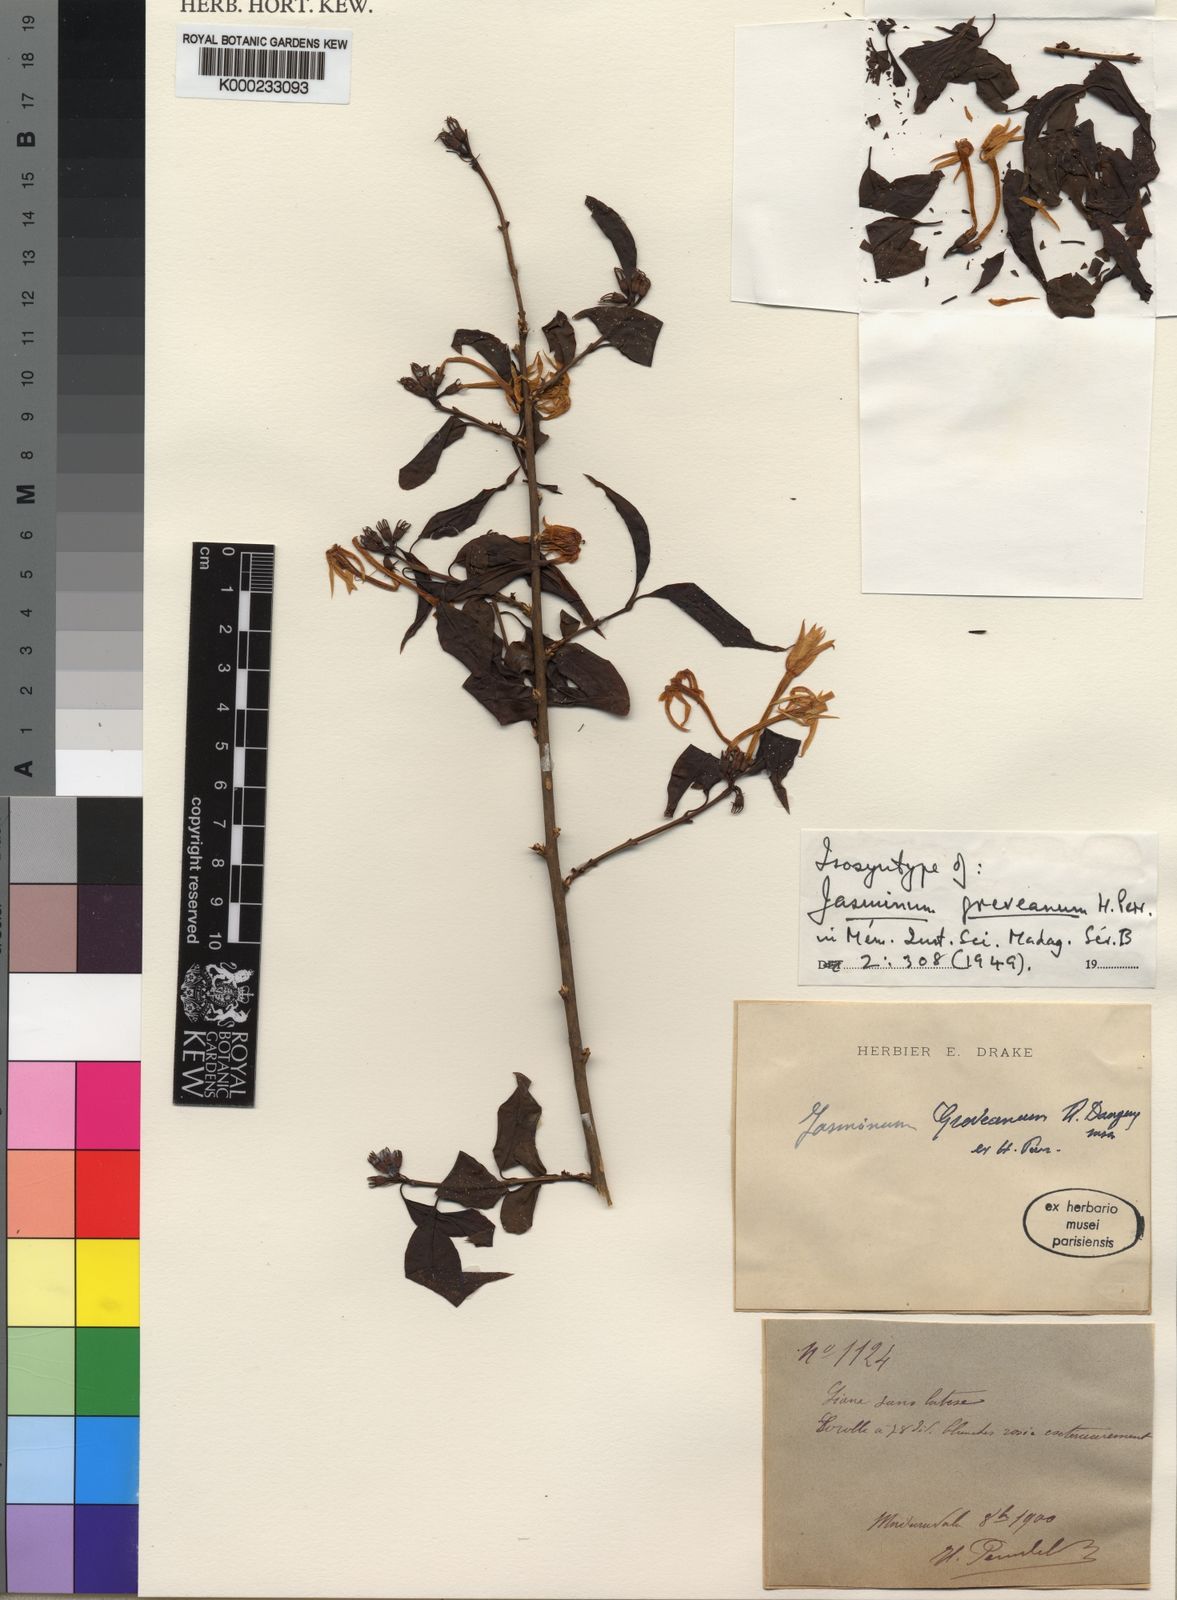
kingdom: Plantae
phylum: Tracheophyta
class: Magnoliopsida
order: Lamiales
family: Oleaceae
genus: Jasminum
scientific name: Jasminum greveanum
